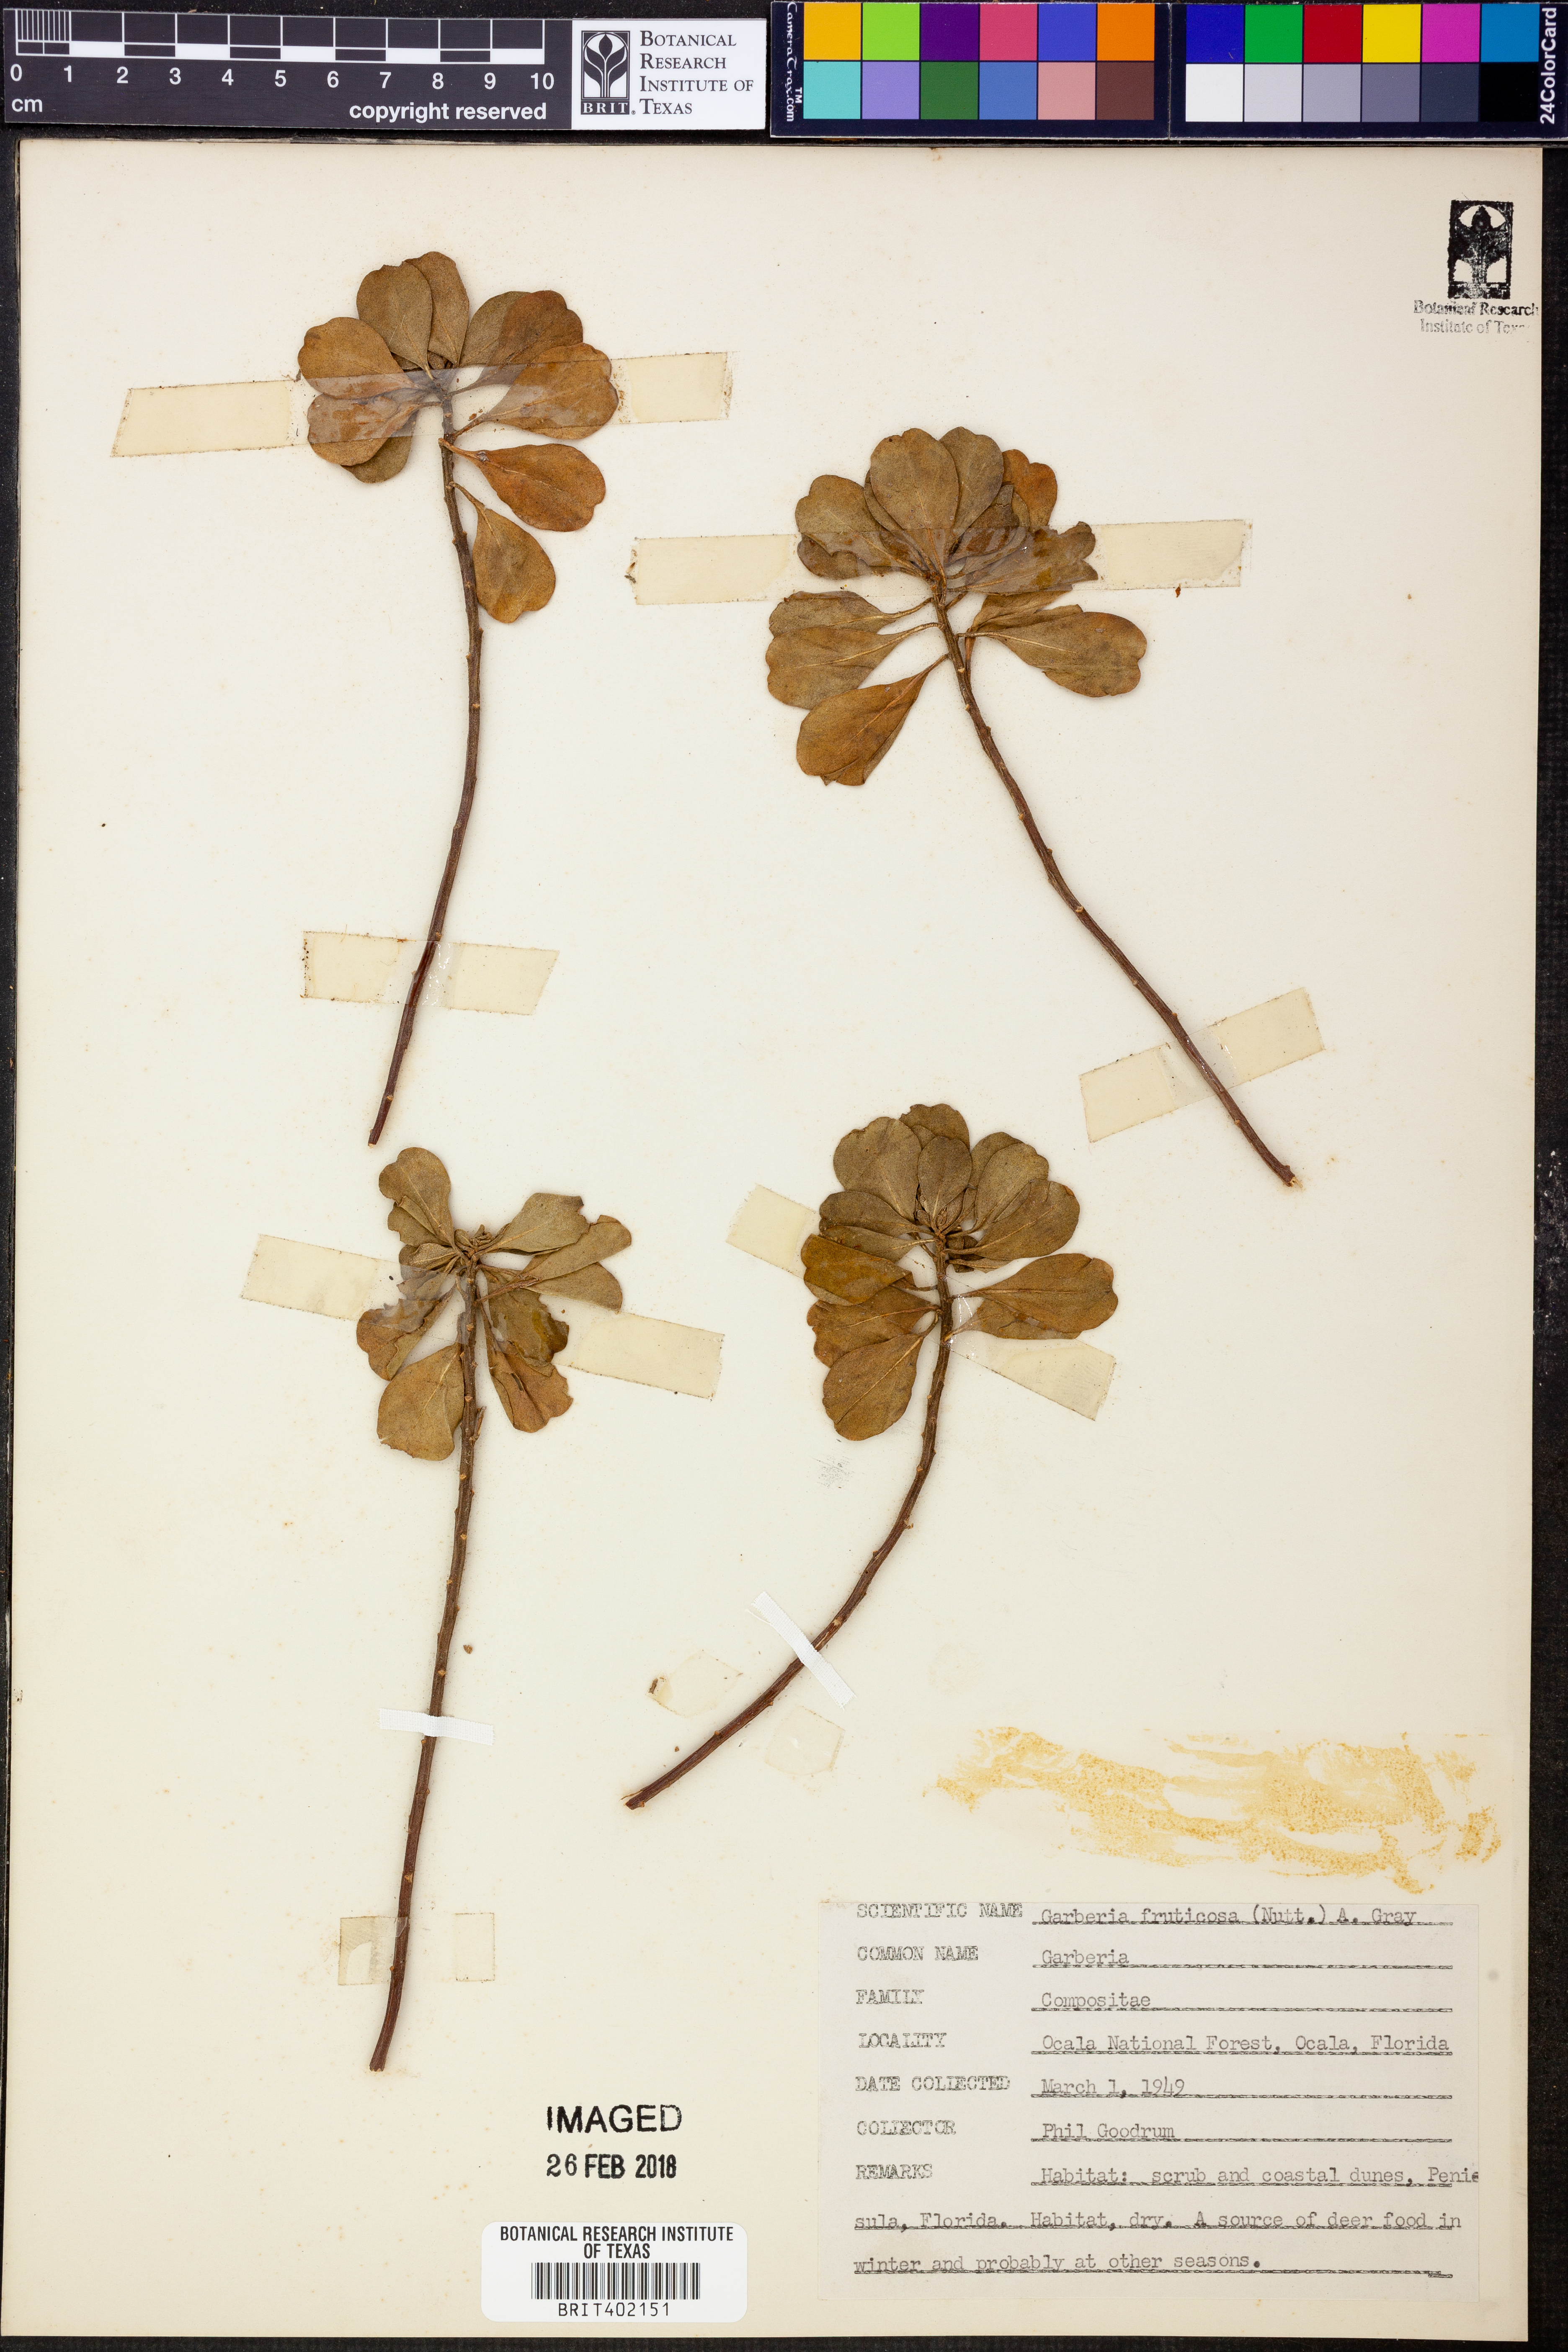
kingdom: Plantae
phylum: Tracheophyta
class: Magnoliopsida
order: Asterales
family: Asteraceae
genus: Garberia
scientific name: Garberia heterophylla
